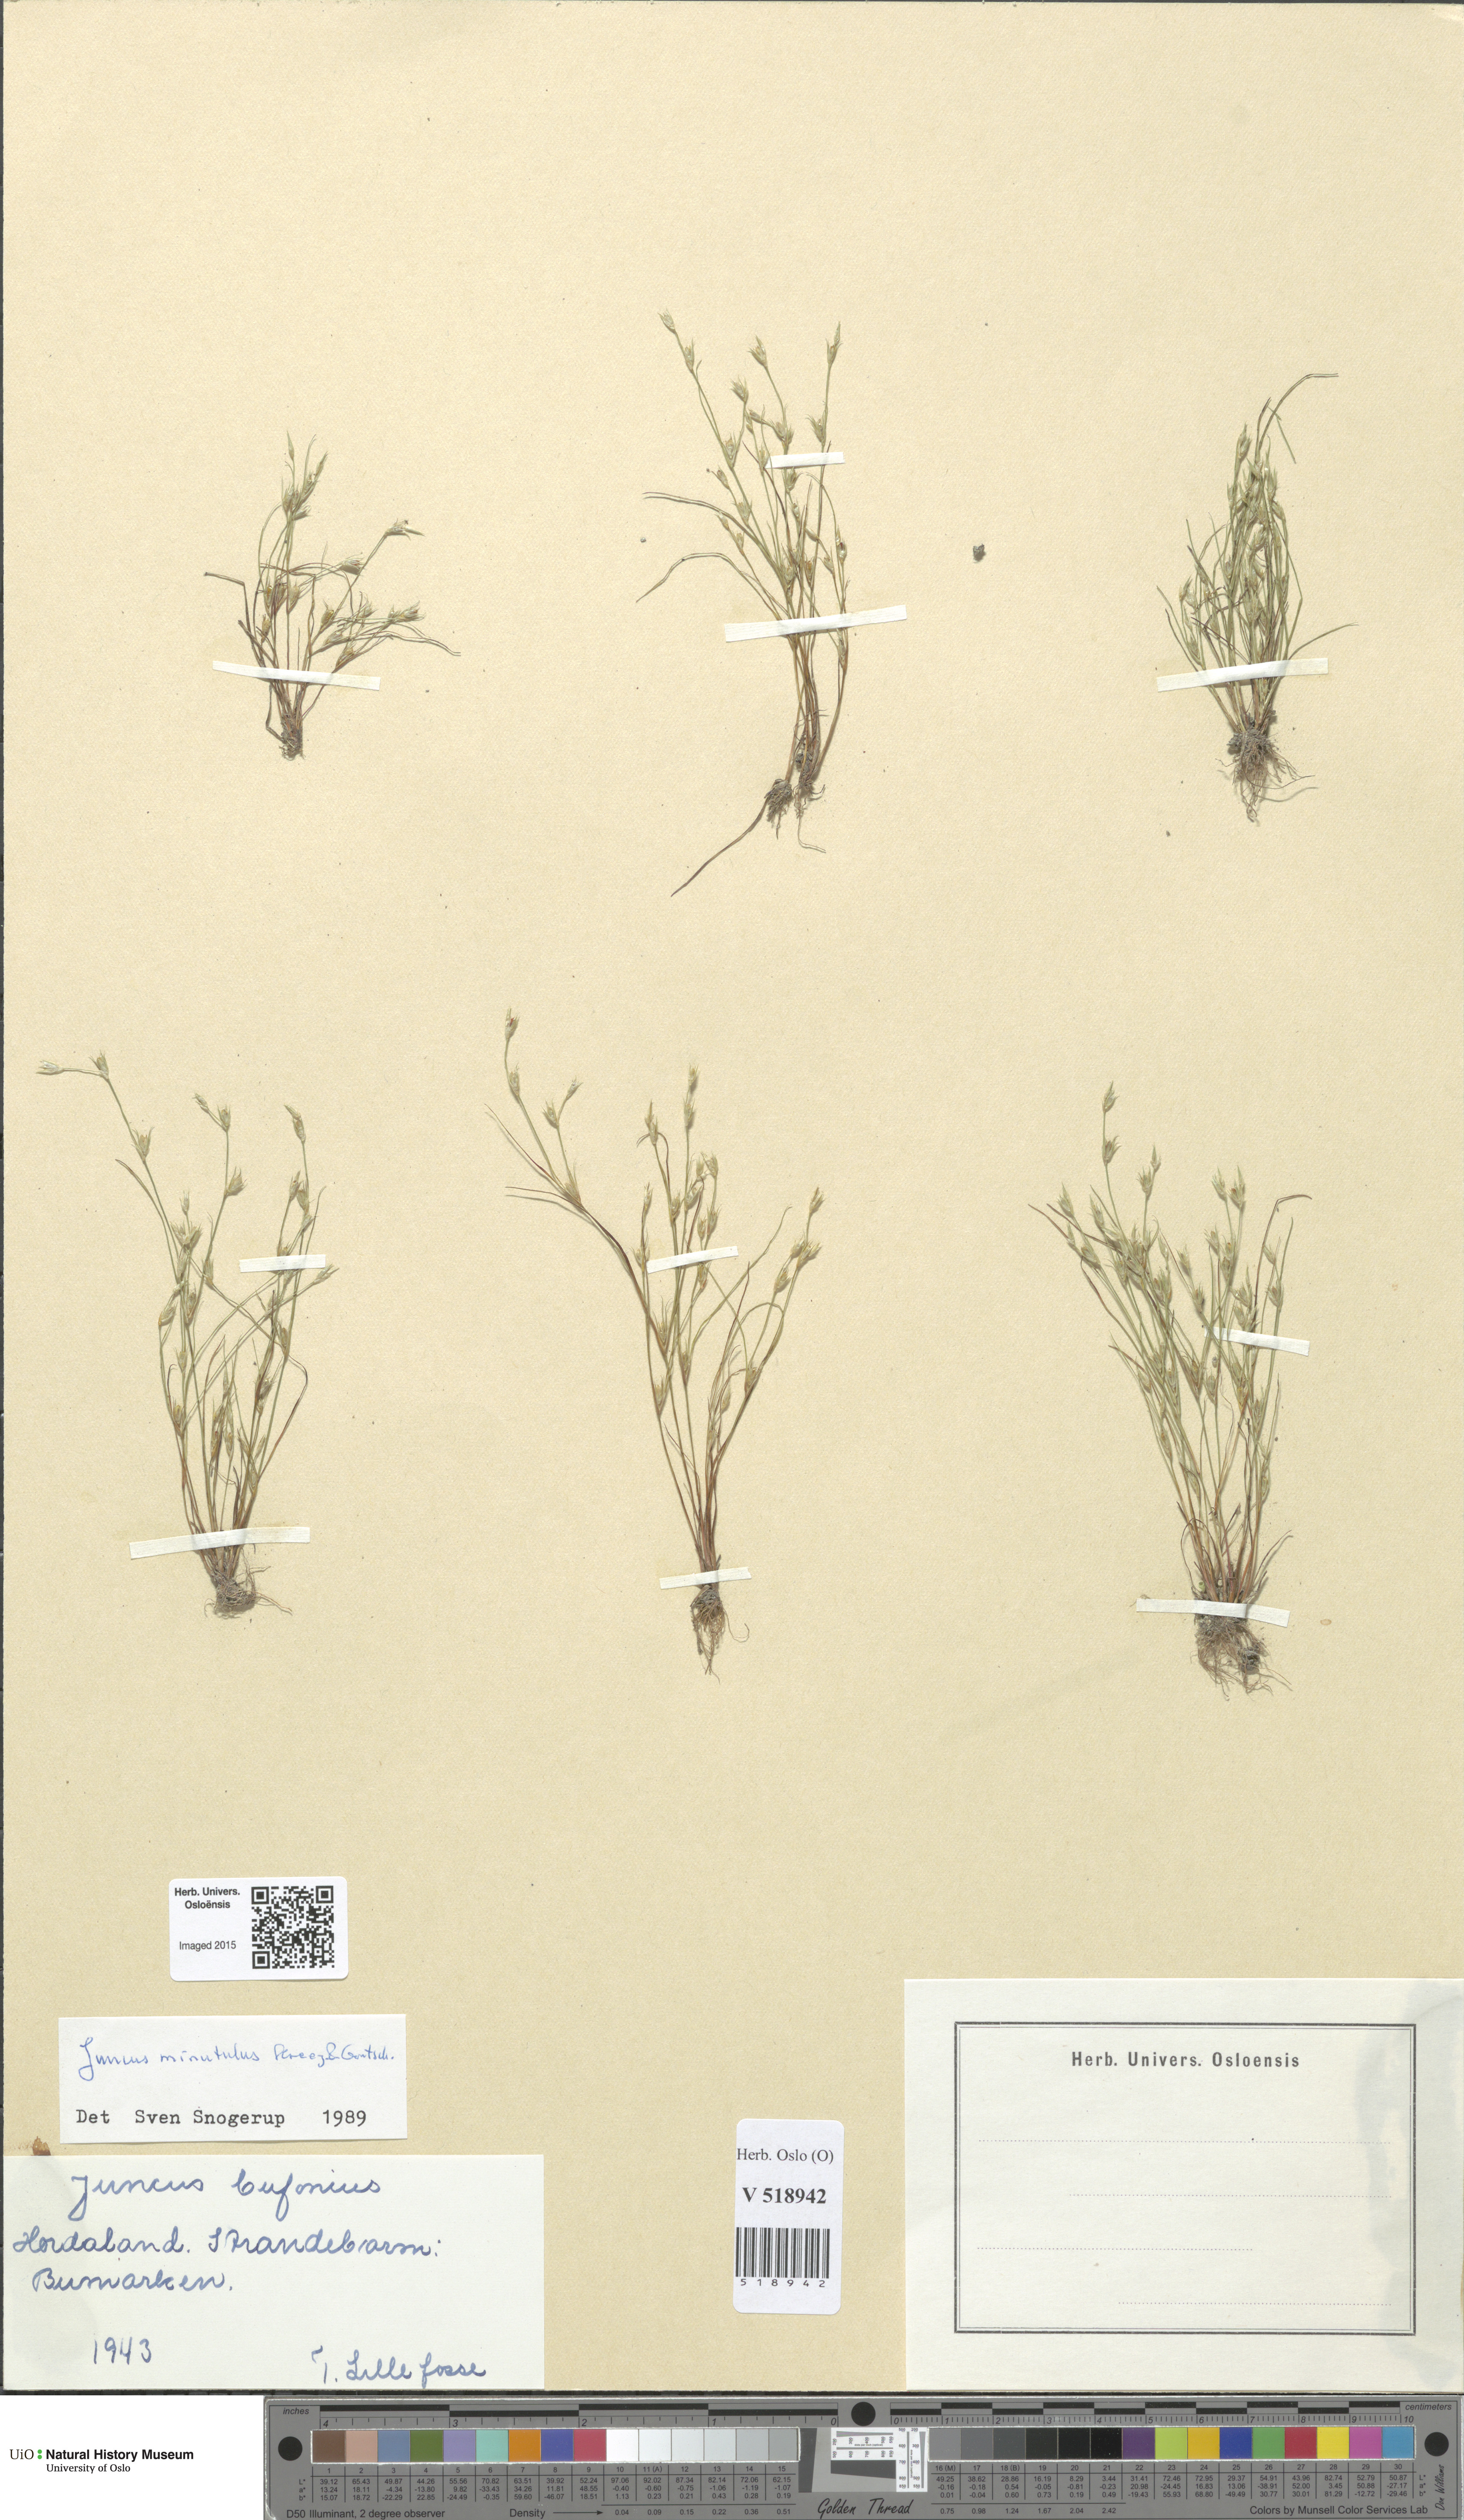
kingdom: Plantae
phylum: Tracheophyta
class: Liliopsida
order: Poales
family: Juncaceae
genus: Juncus
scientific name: Juncus minutulus
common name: Minute rush
